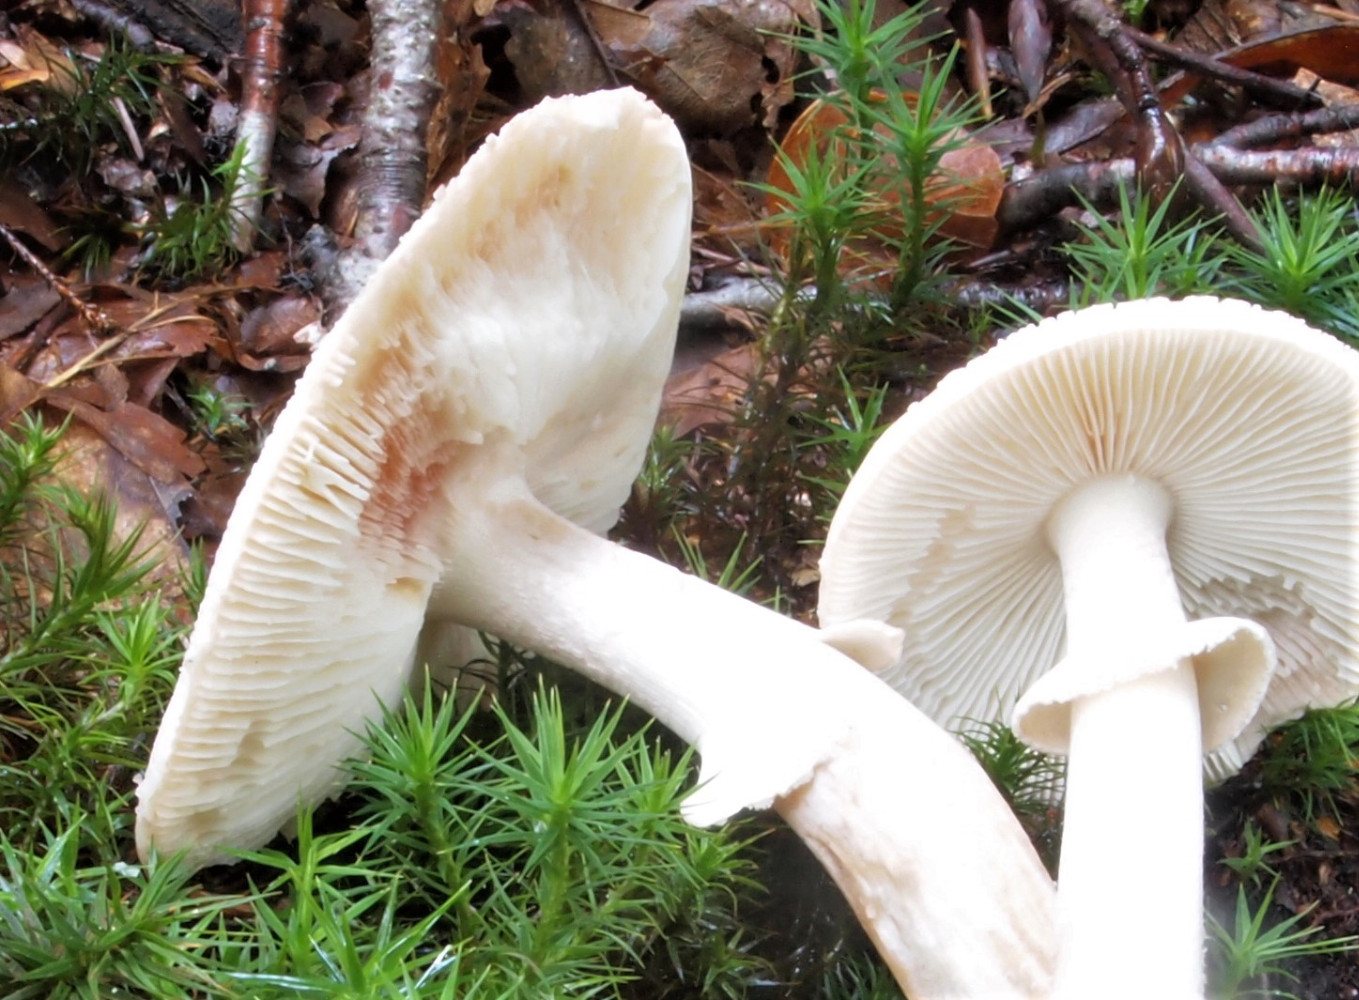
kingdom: Fungi
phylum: Basidiomycota
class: Agaricomycetes
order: Agaricales
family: Amanitaceae
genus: Amanita
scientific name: Amanita rubescens
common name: rødmende fluesvamp
